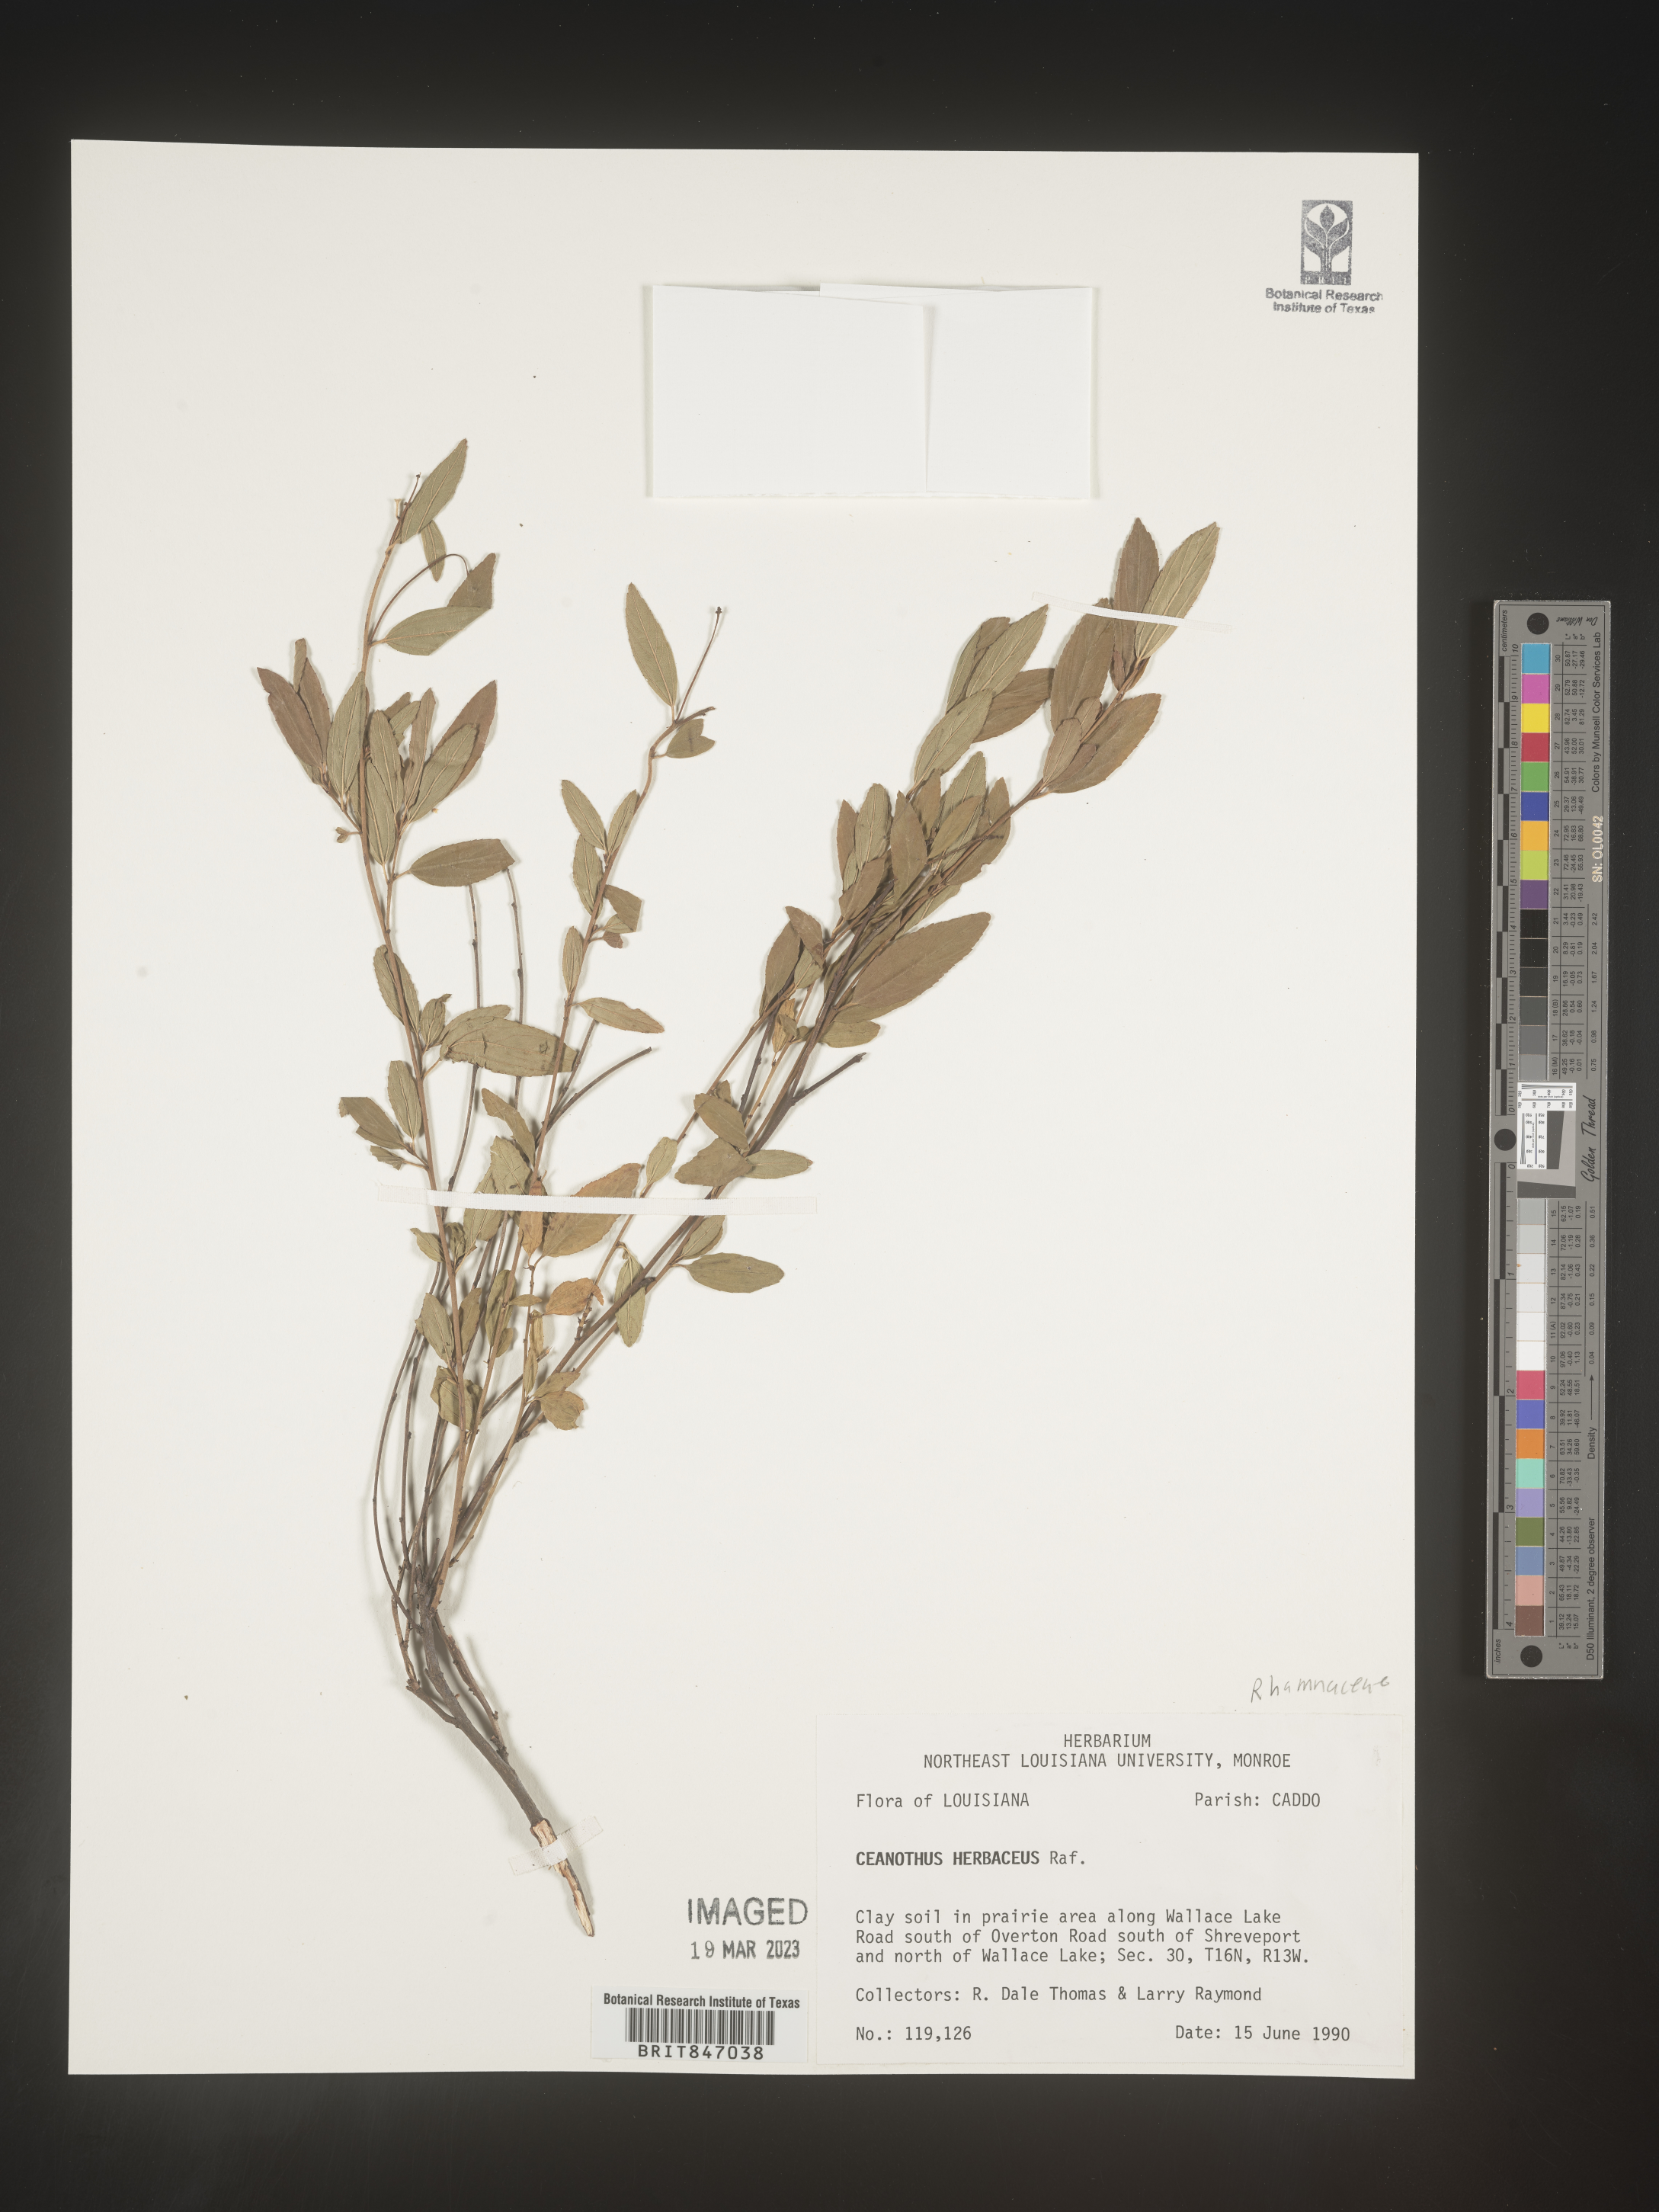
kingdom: Plantae
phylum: Tracheophyta
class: Magnoliopsida
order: Rosales
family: Rhamnaceae
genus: Ceanothus
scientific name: Ceanothus herbaceus
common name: Inland ceanothus
